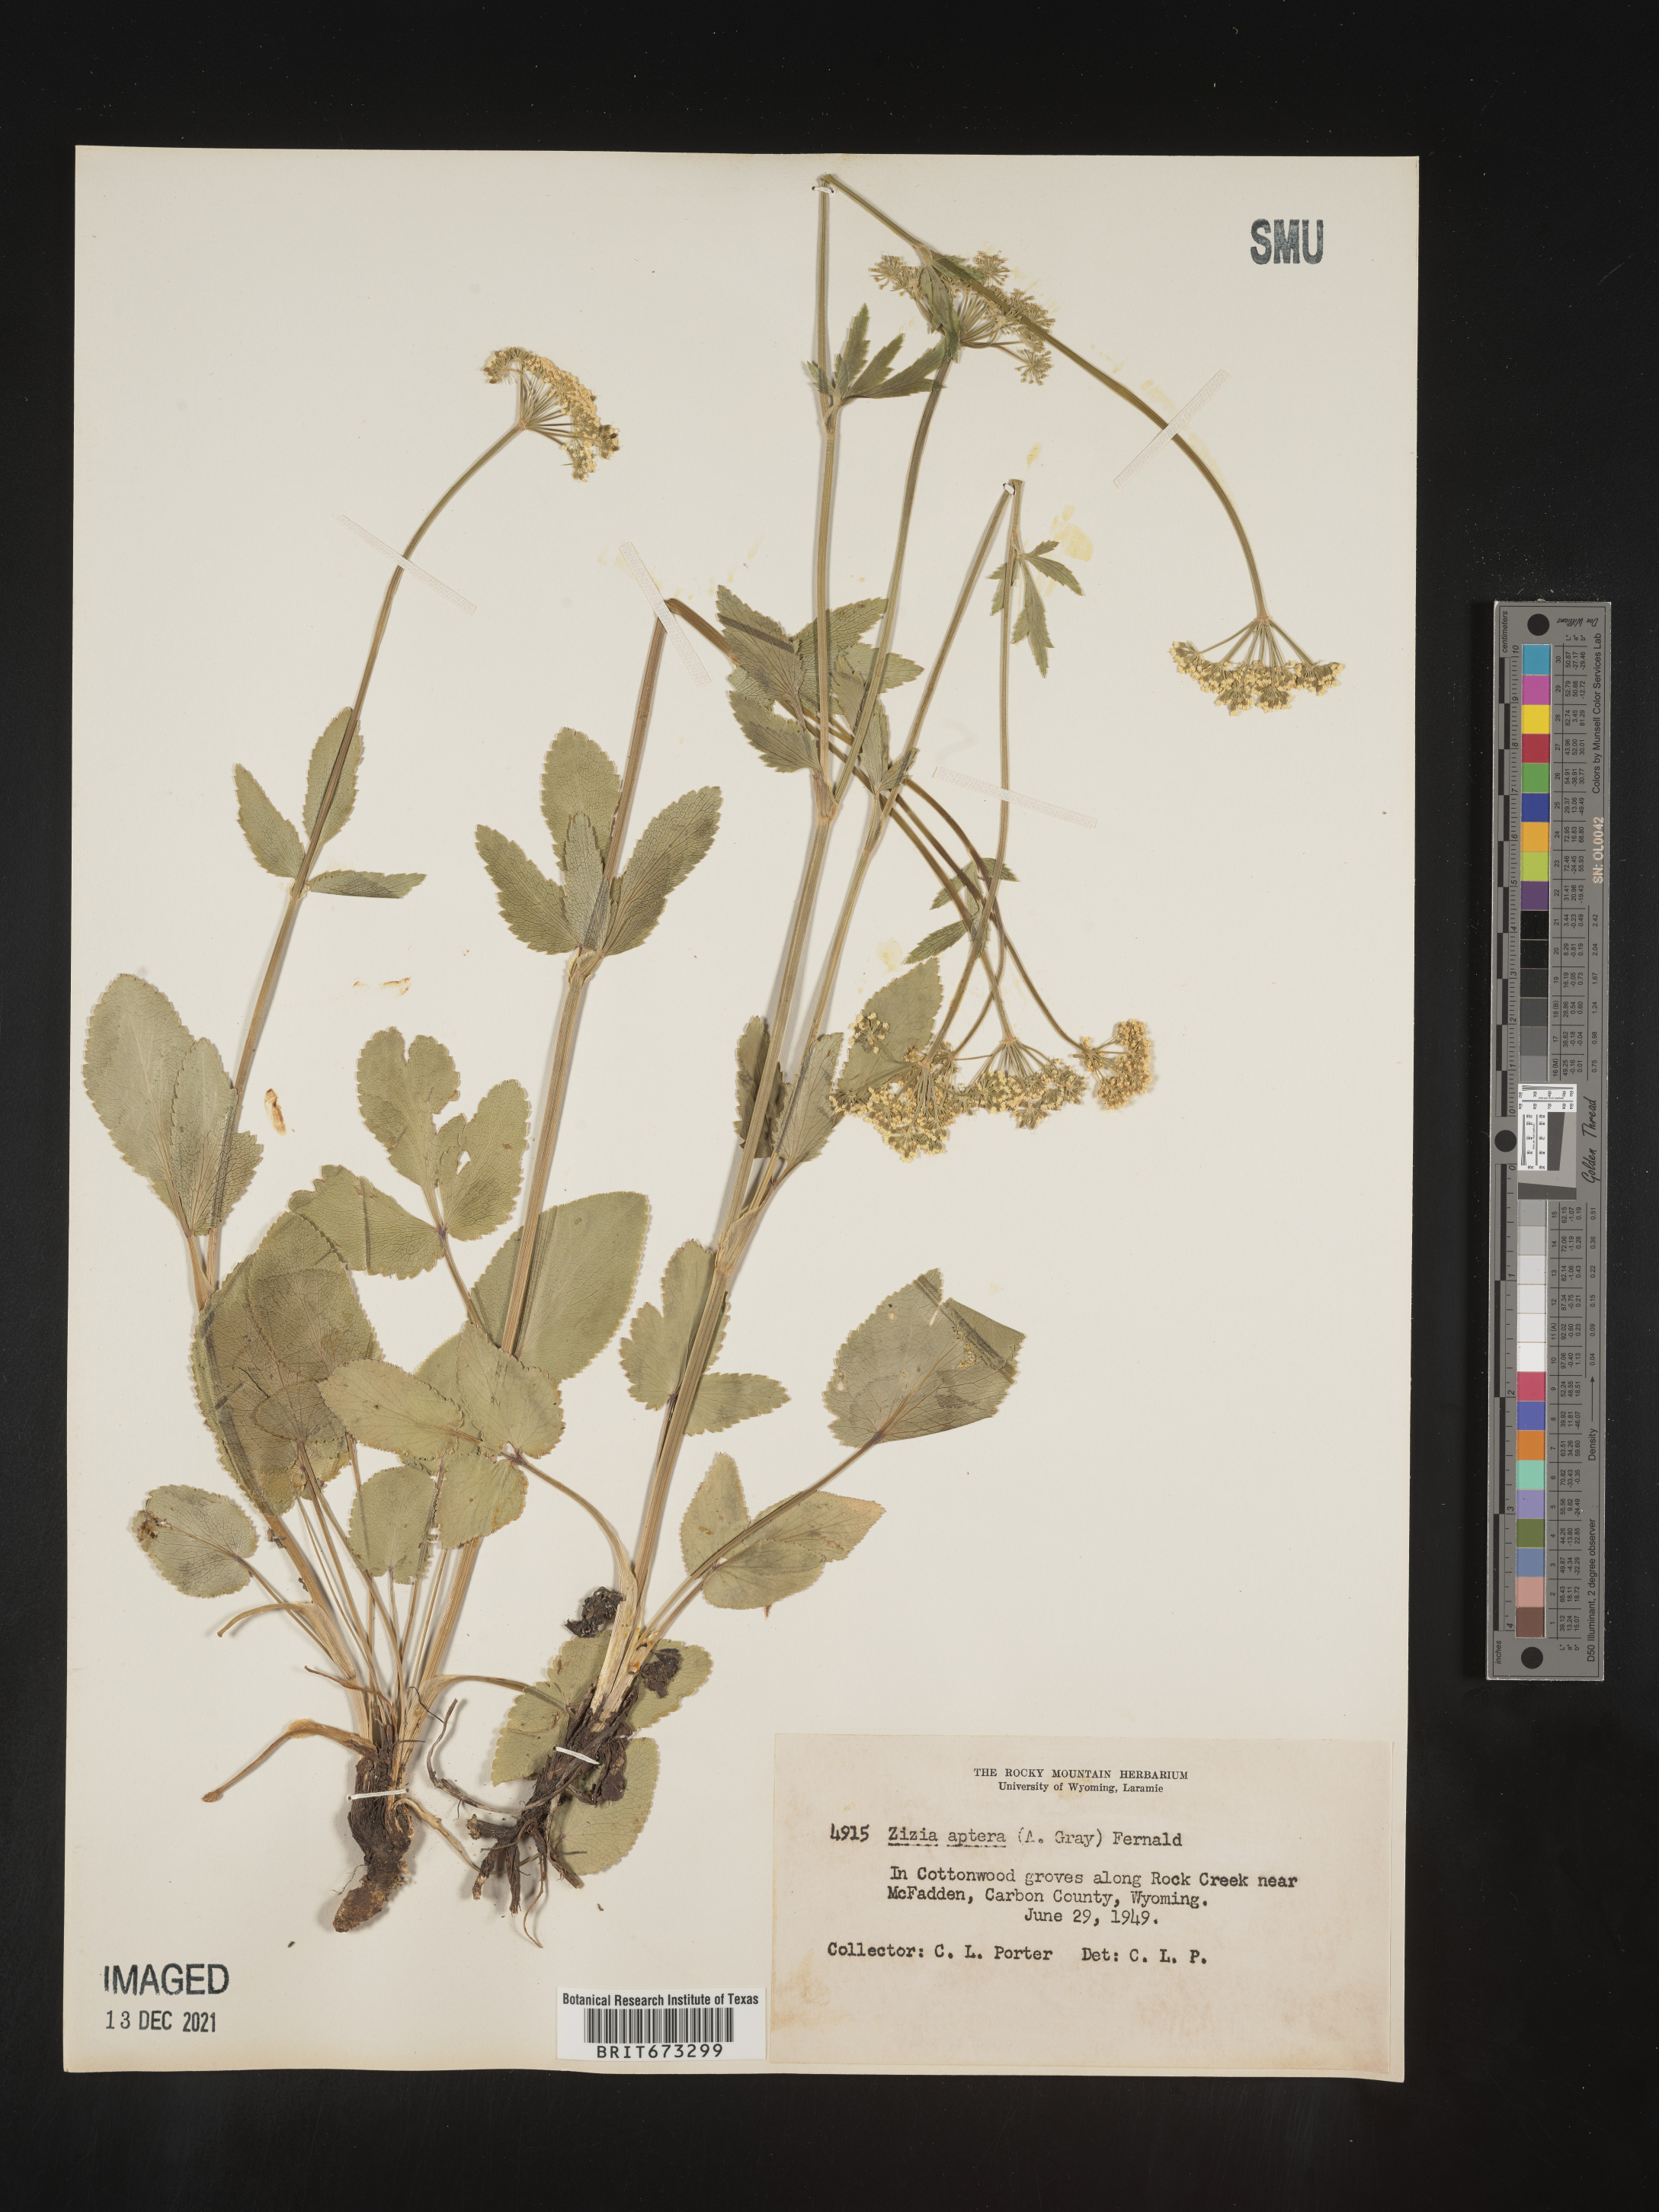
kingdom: Plantae
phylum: Tracheophyta
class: Magnoliopsida
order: Apiales
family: Apiaceae
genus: Zizia
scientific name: Zizia aptera
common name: Heart-leaved alexanders
